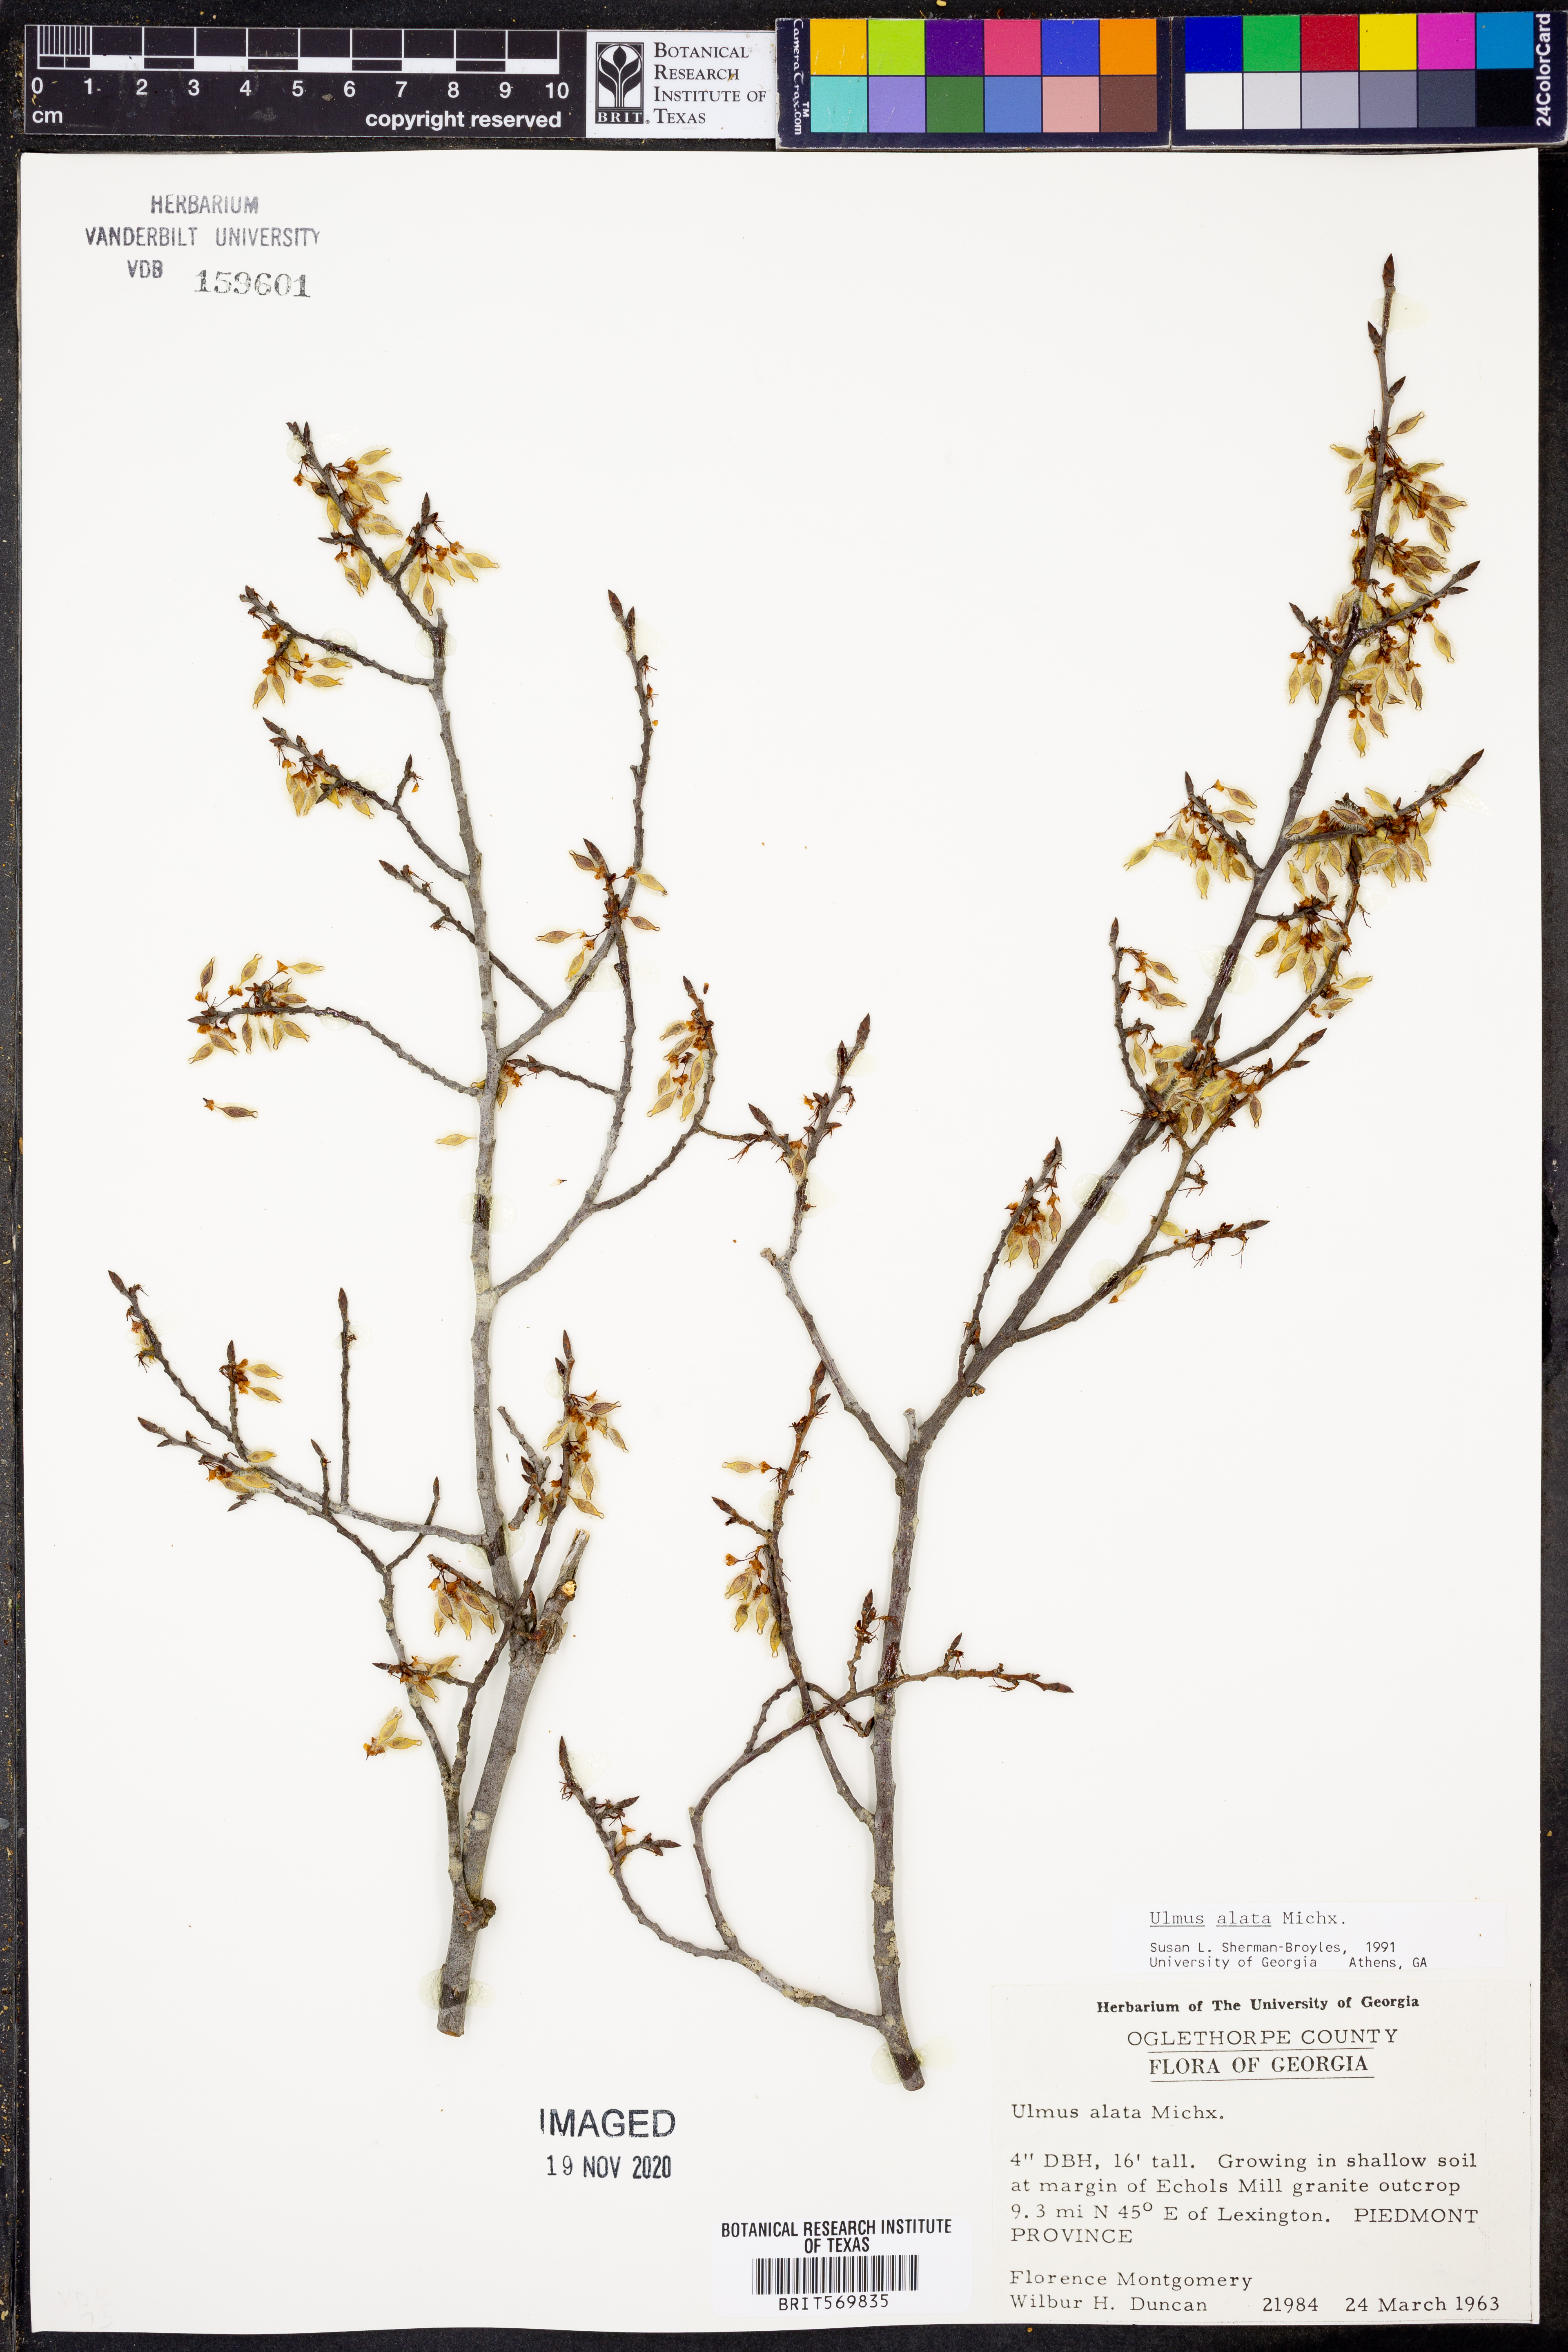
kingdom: Plantae
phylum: Tracheophyta
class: Magnoliopsida
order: Rosales
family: Ulmaceae
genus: Ulmus
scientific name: Ulmus alata
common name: Winged elm
